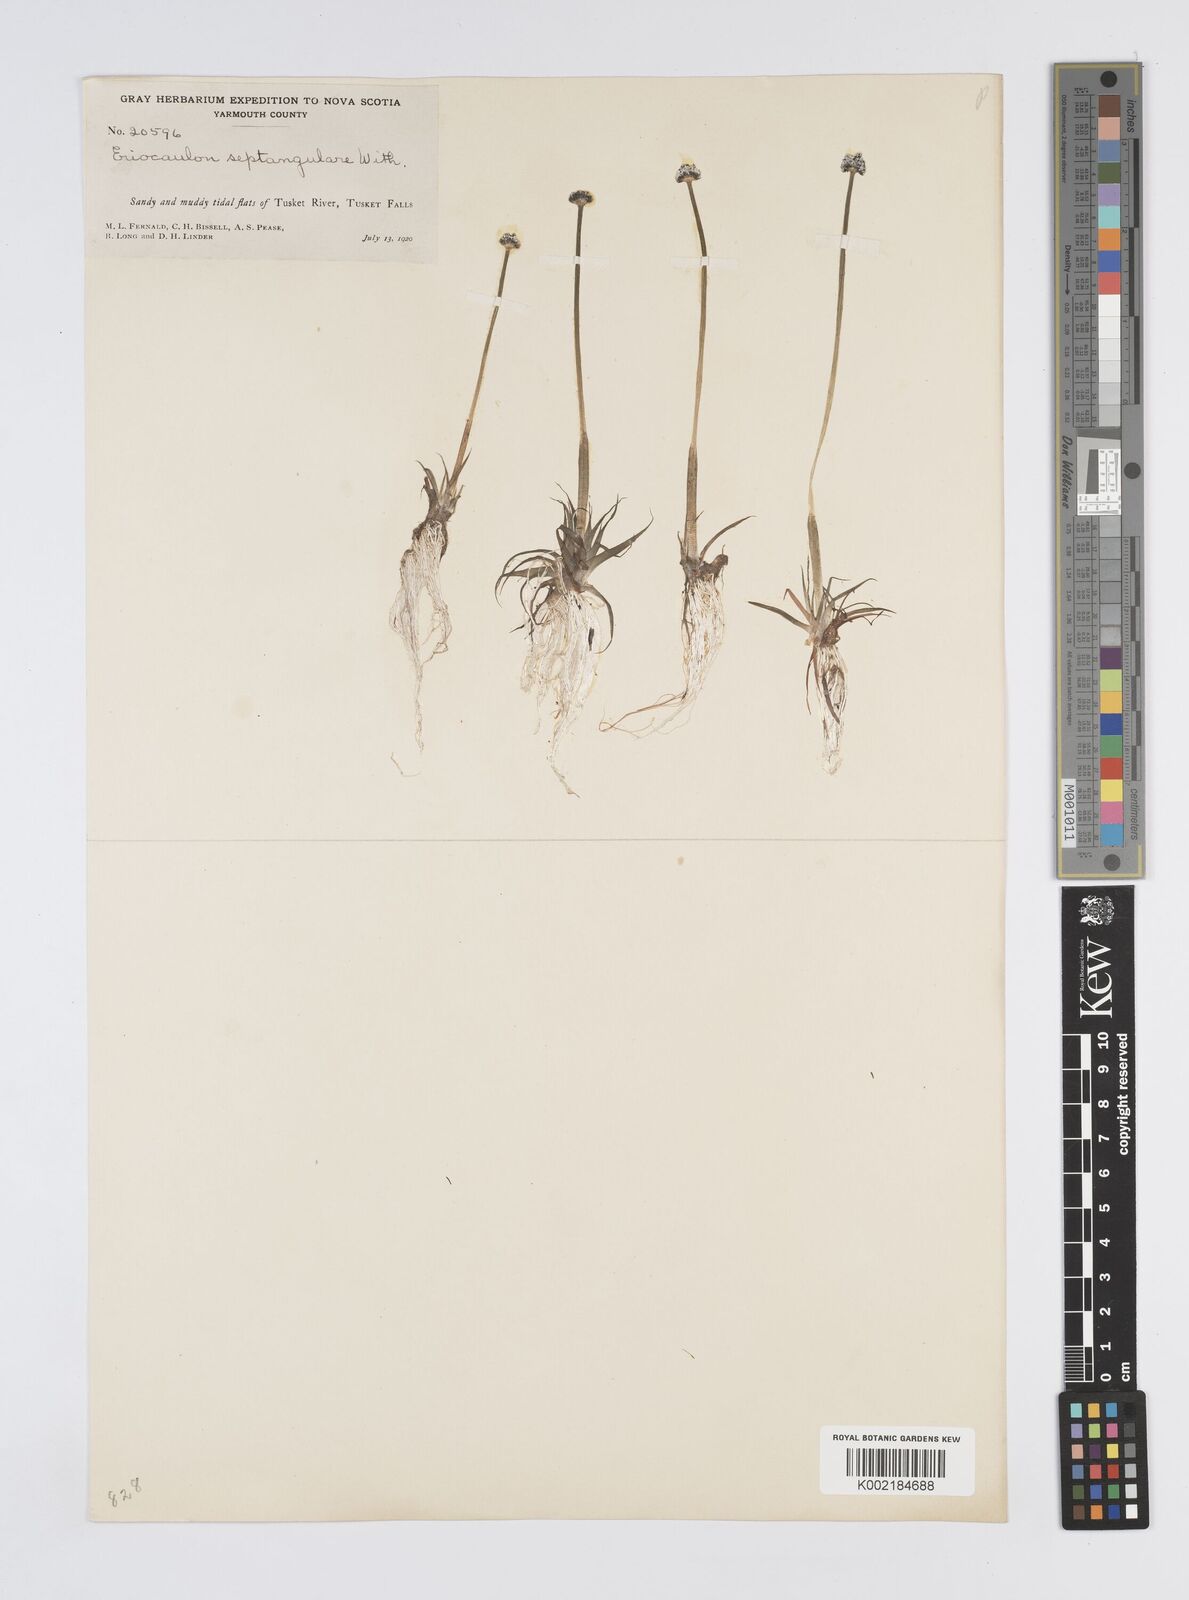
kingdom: Plantae
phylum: Tracheophyta
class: Liliopsida
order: Poales
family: Eriocaulaceae
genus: Eriocaulon
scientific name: Eriocaulon aquaticum
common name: Pipewort
